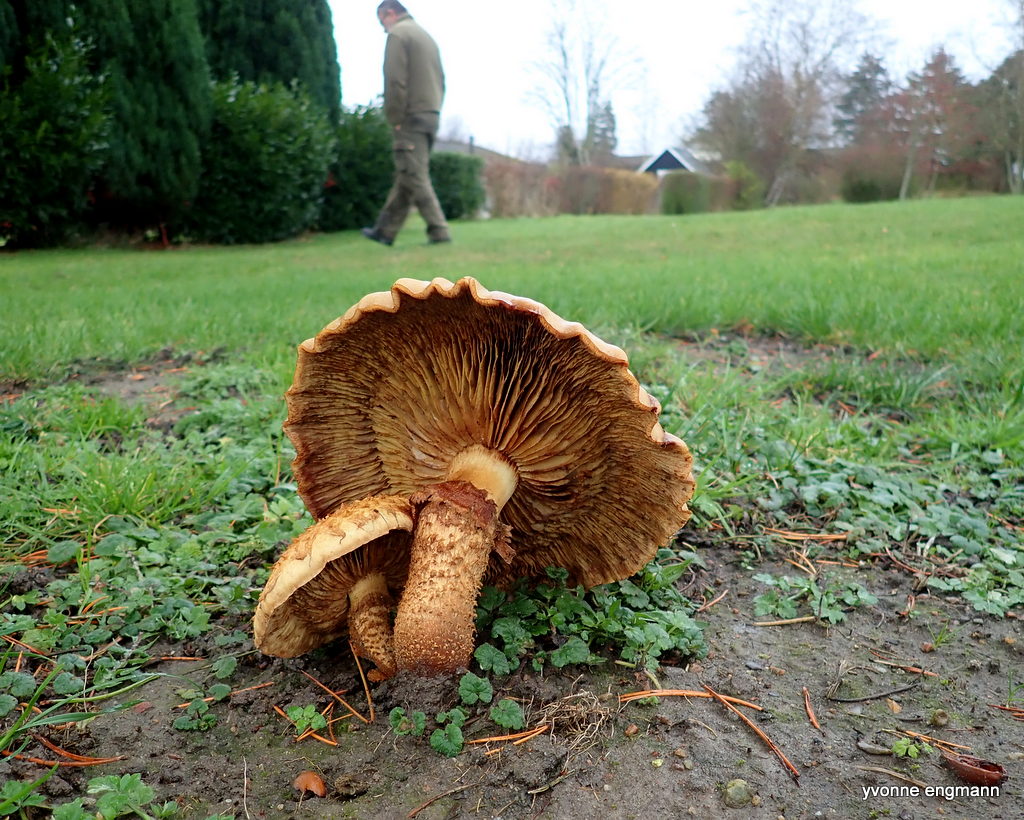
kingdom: Fungi
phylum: Basidiomycota
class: Agaricomycetes
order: Agaricales
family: Strophariaceae
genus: Pholiota
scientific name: Pholiota squarrosa
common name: krumskællet skælhat
